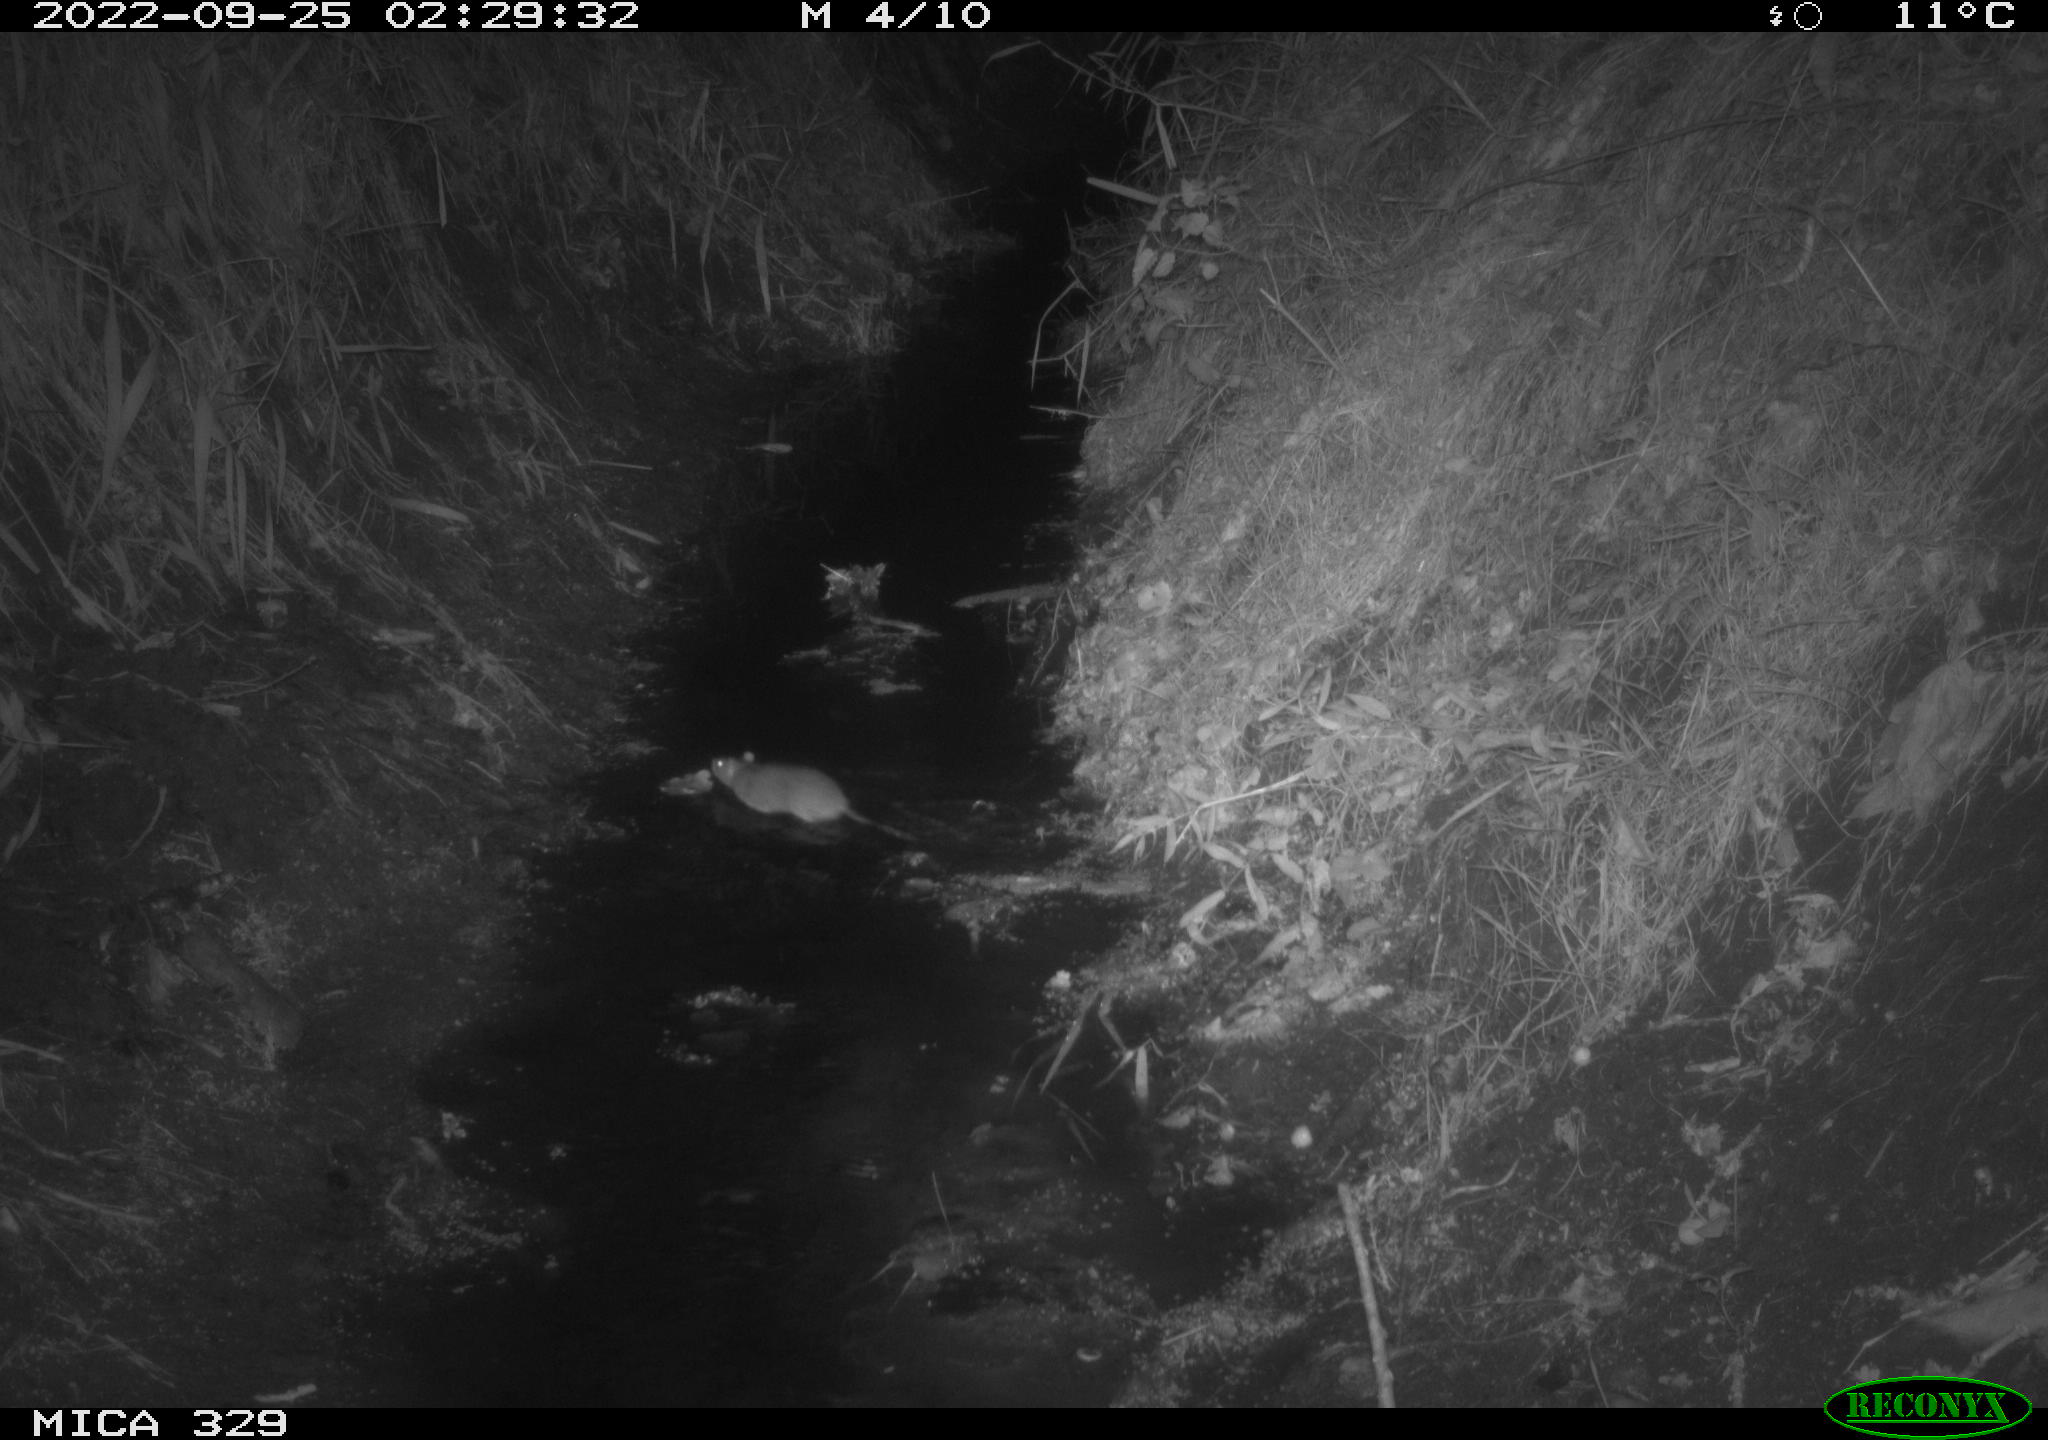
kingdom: Animalia
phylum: Chordata
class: Mammalia
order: Rodentia
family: Muridae
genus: Rattus
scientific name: Rattus norvegicus
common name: Brown rat
